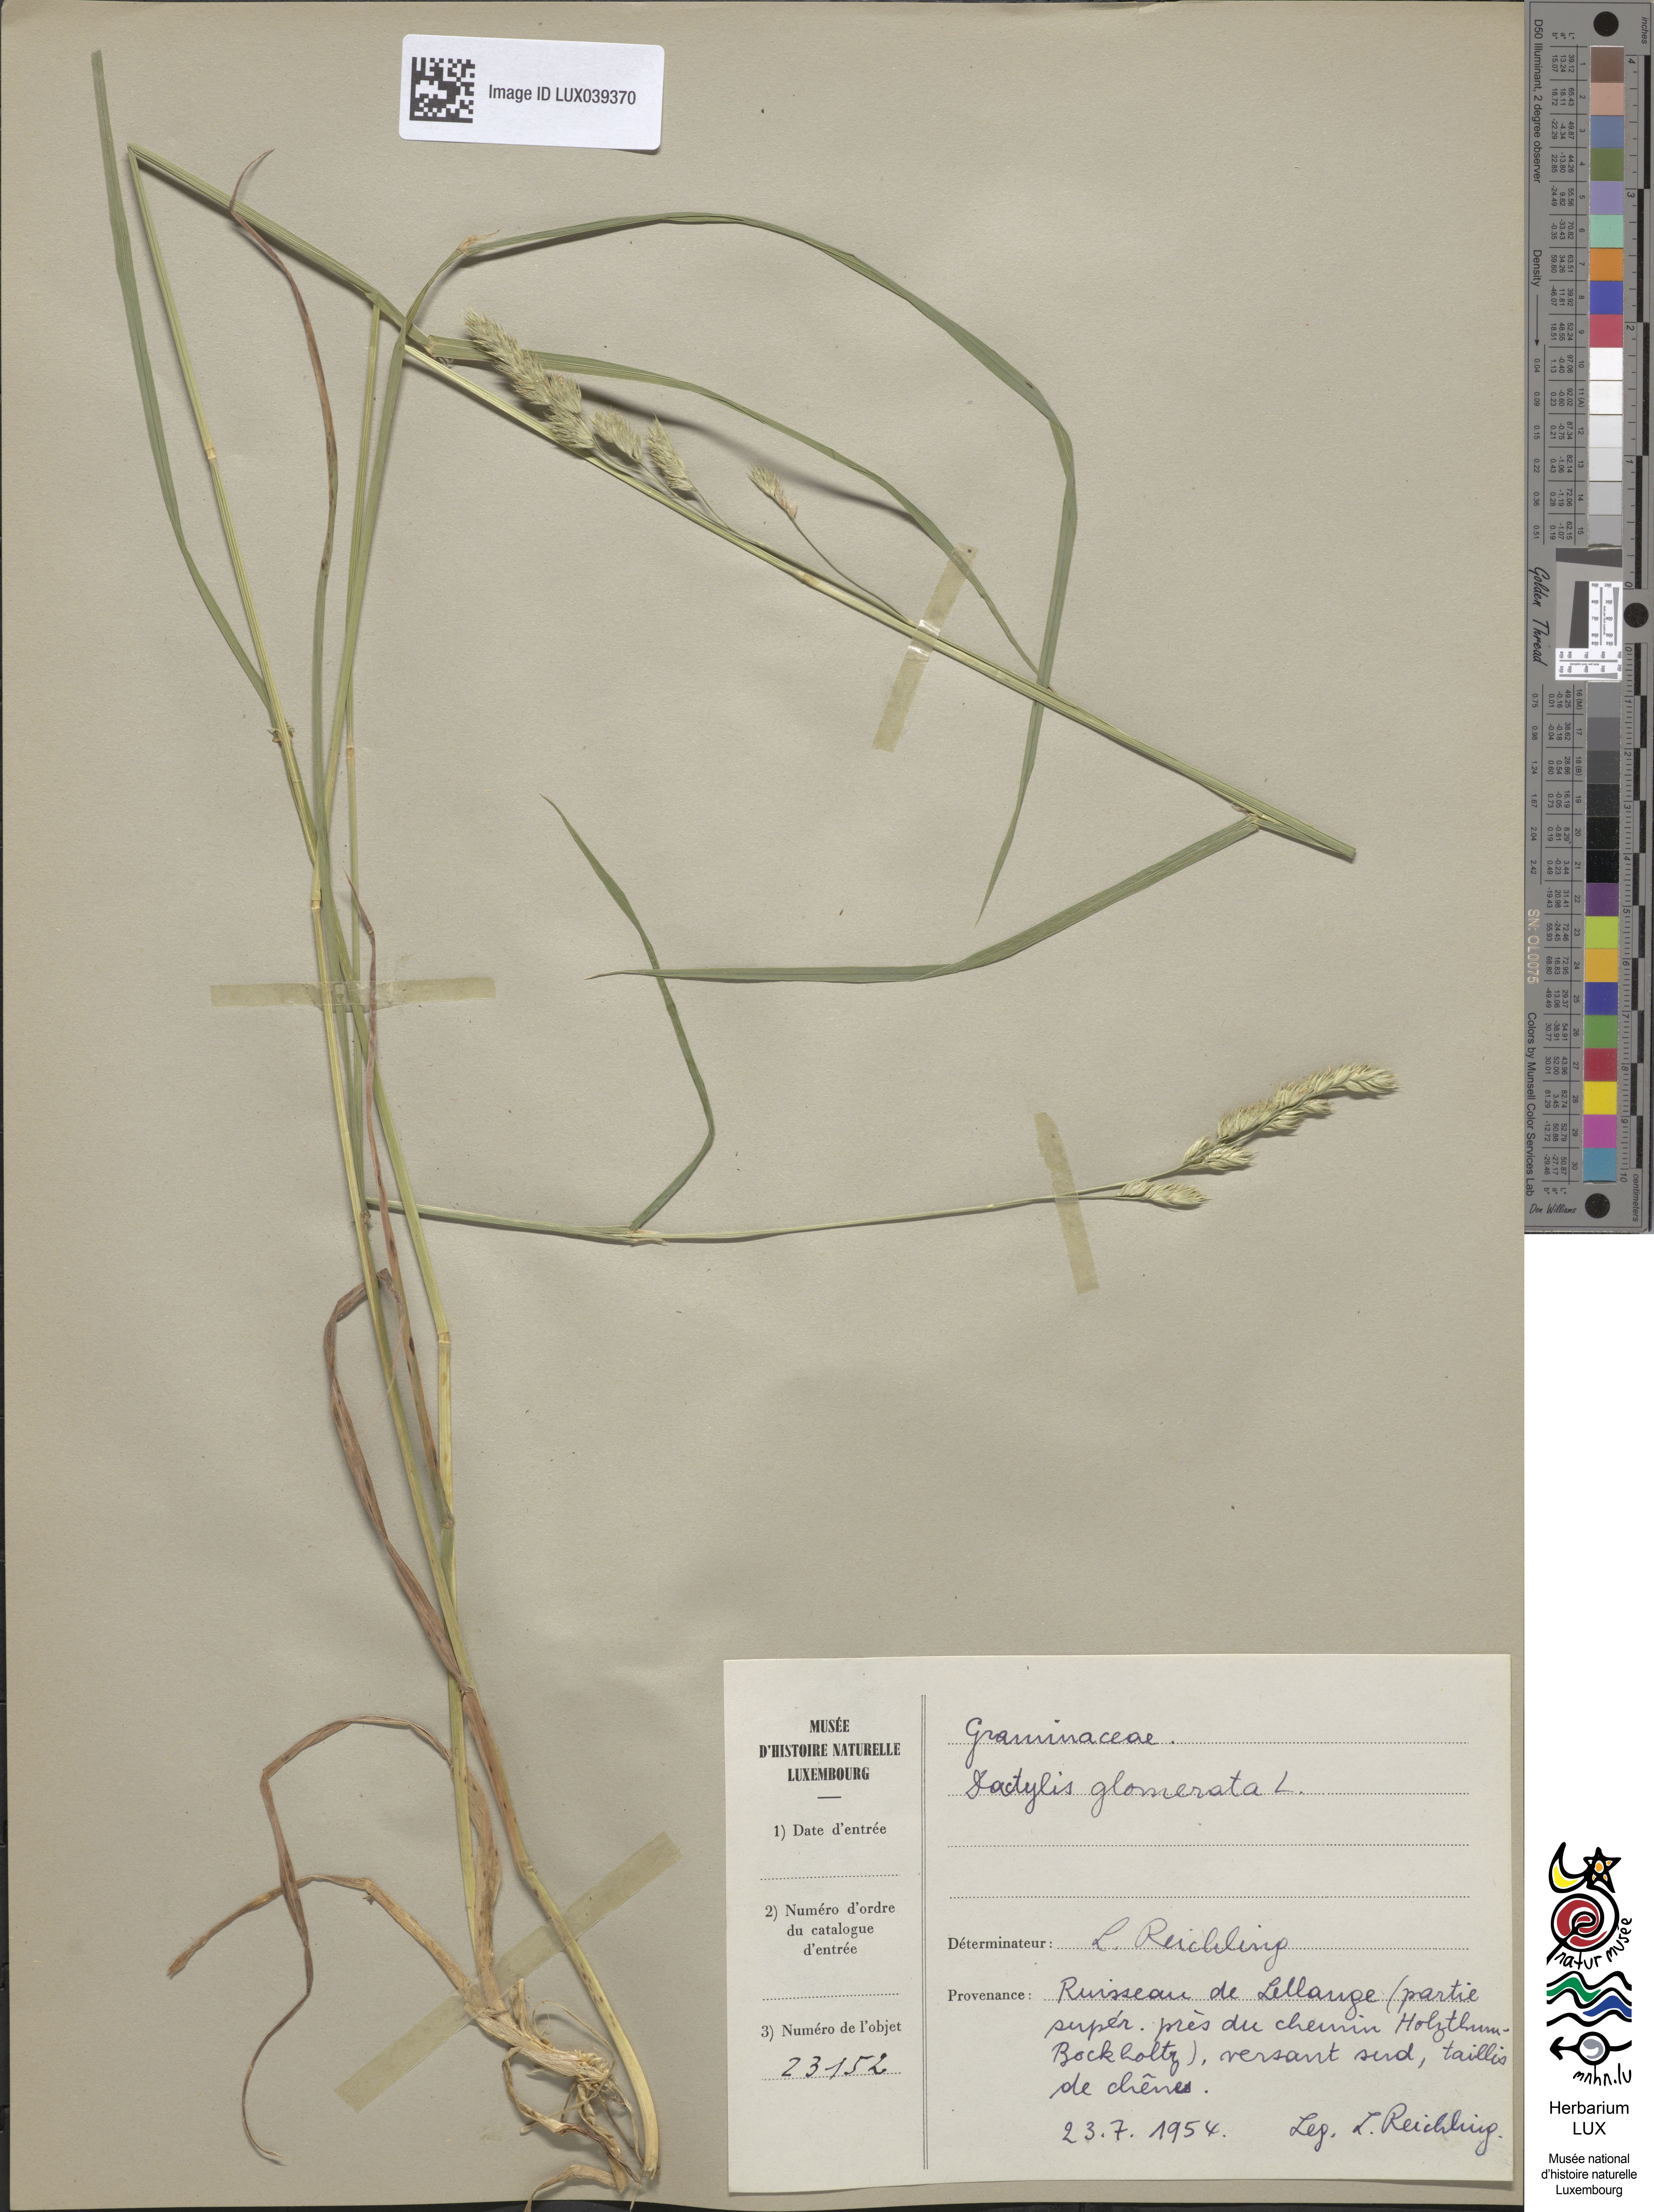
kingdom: Plantae
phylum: Tracheophyta
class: Liliopsida
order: Poales
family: Poaceae
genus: Dactylis
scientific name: Dactylis glomerata
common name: Orchardgrass
